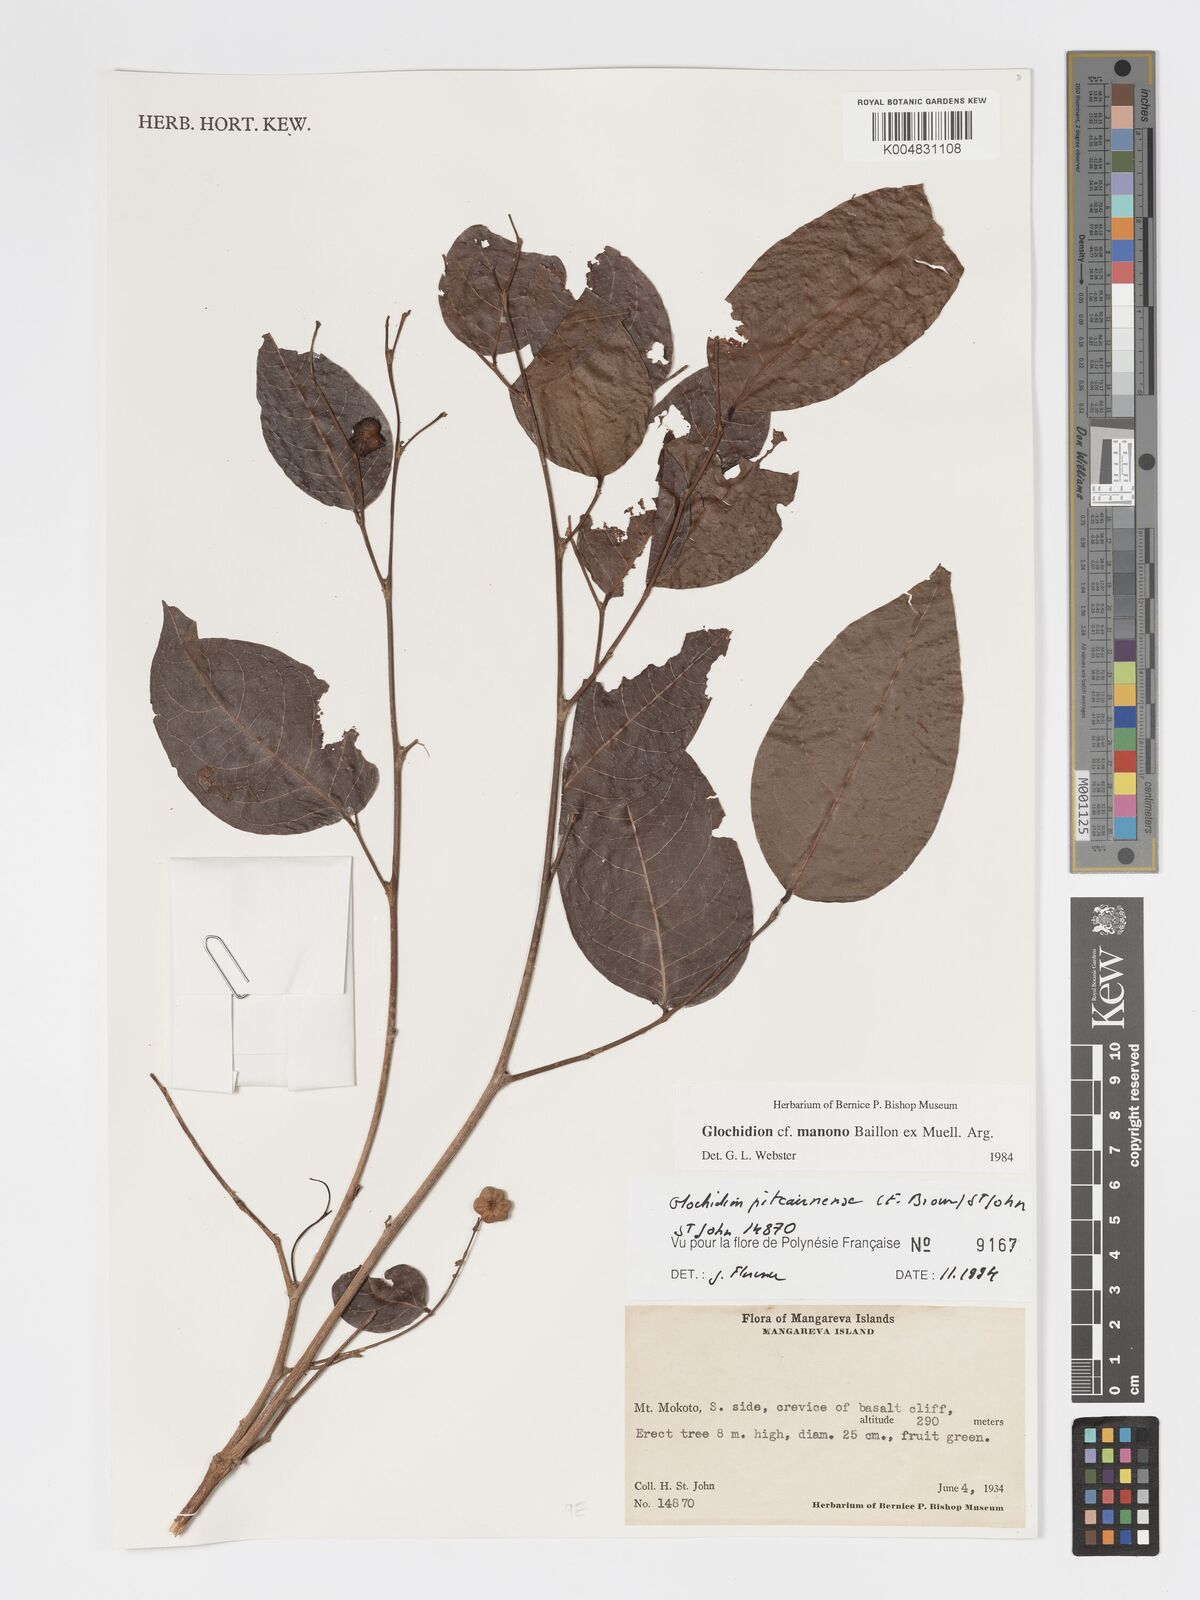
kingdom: Plantae
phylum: Tracheophyta
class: Magnoliopsida
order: Malpighiales
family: Phyllanthaceae
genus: Glochidion
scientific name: Glochidion pitcairnense
